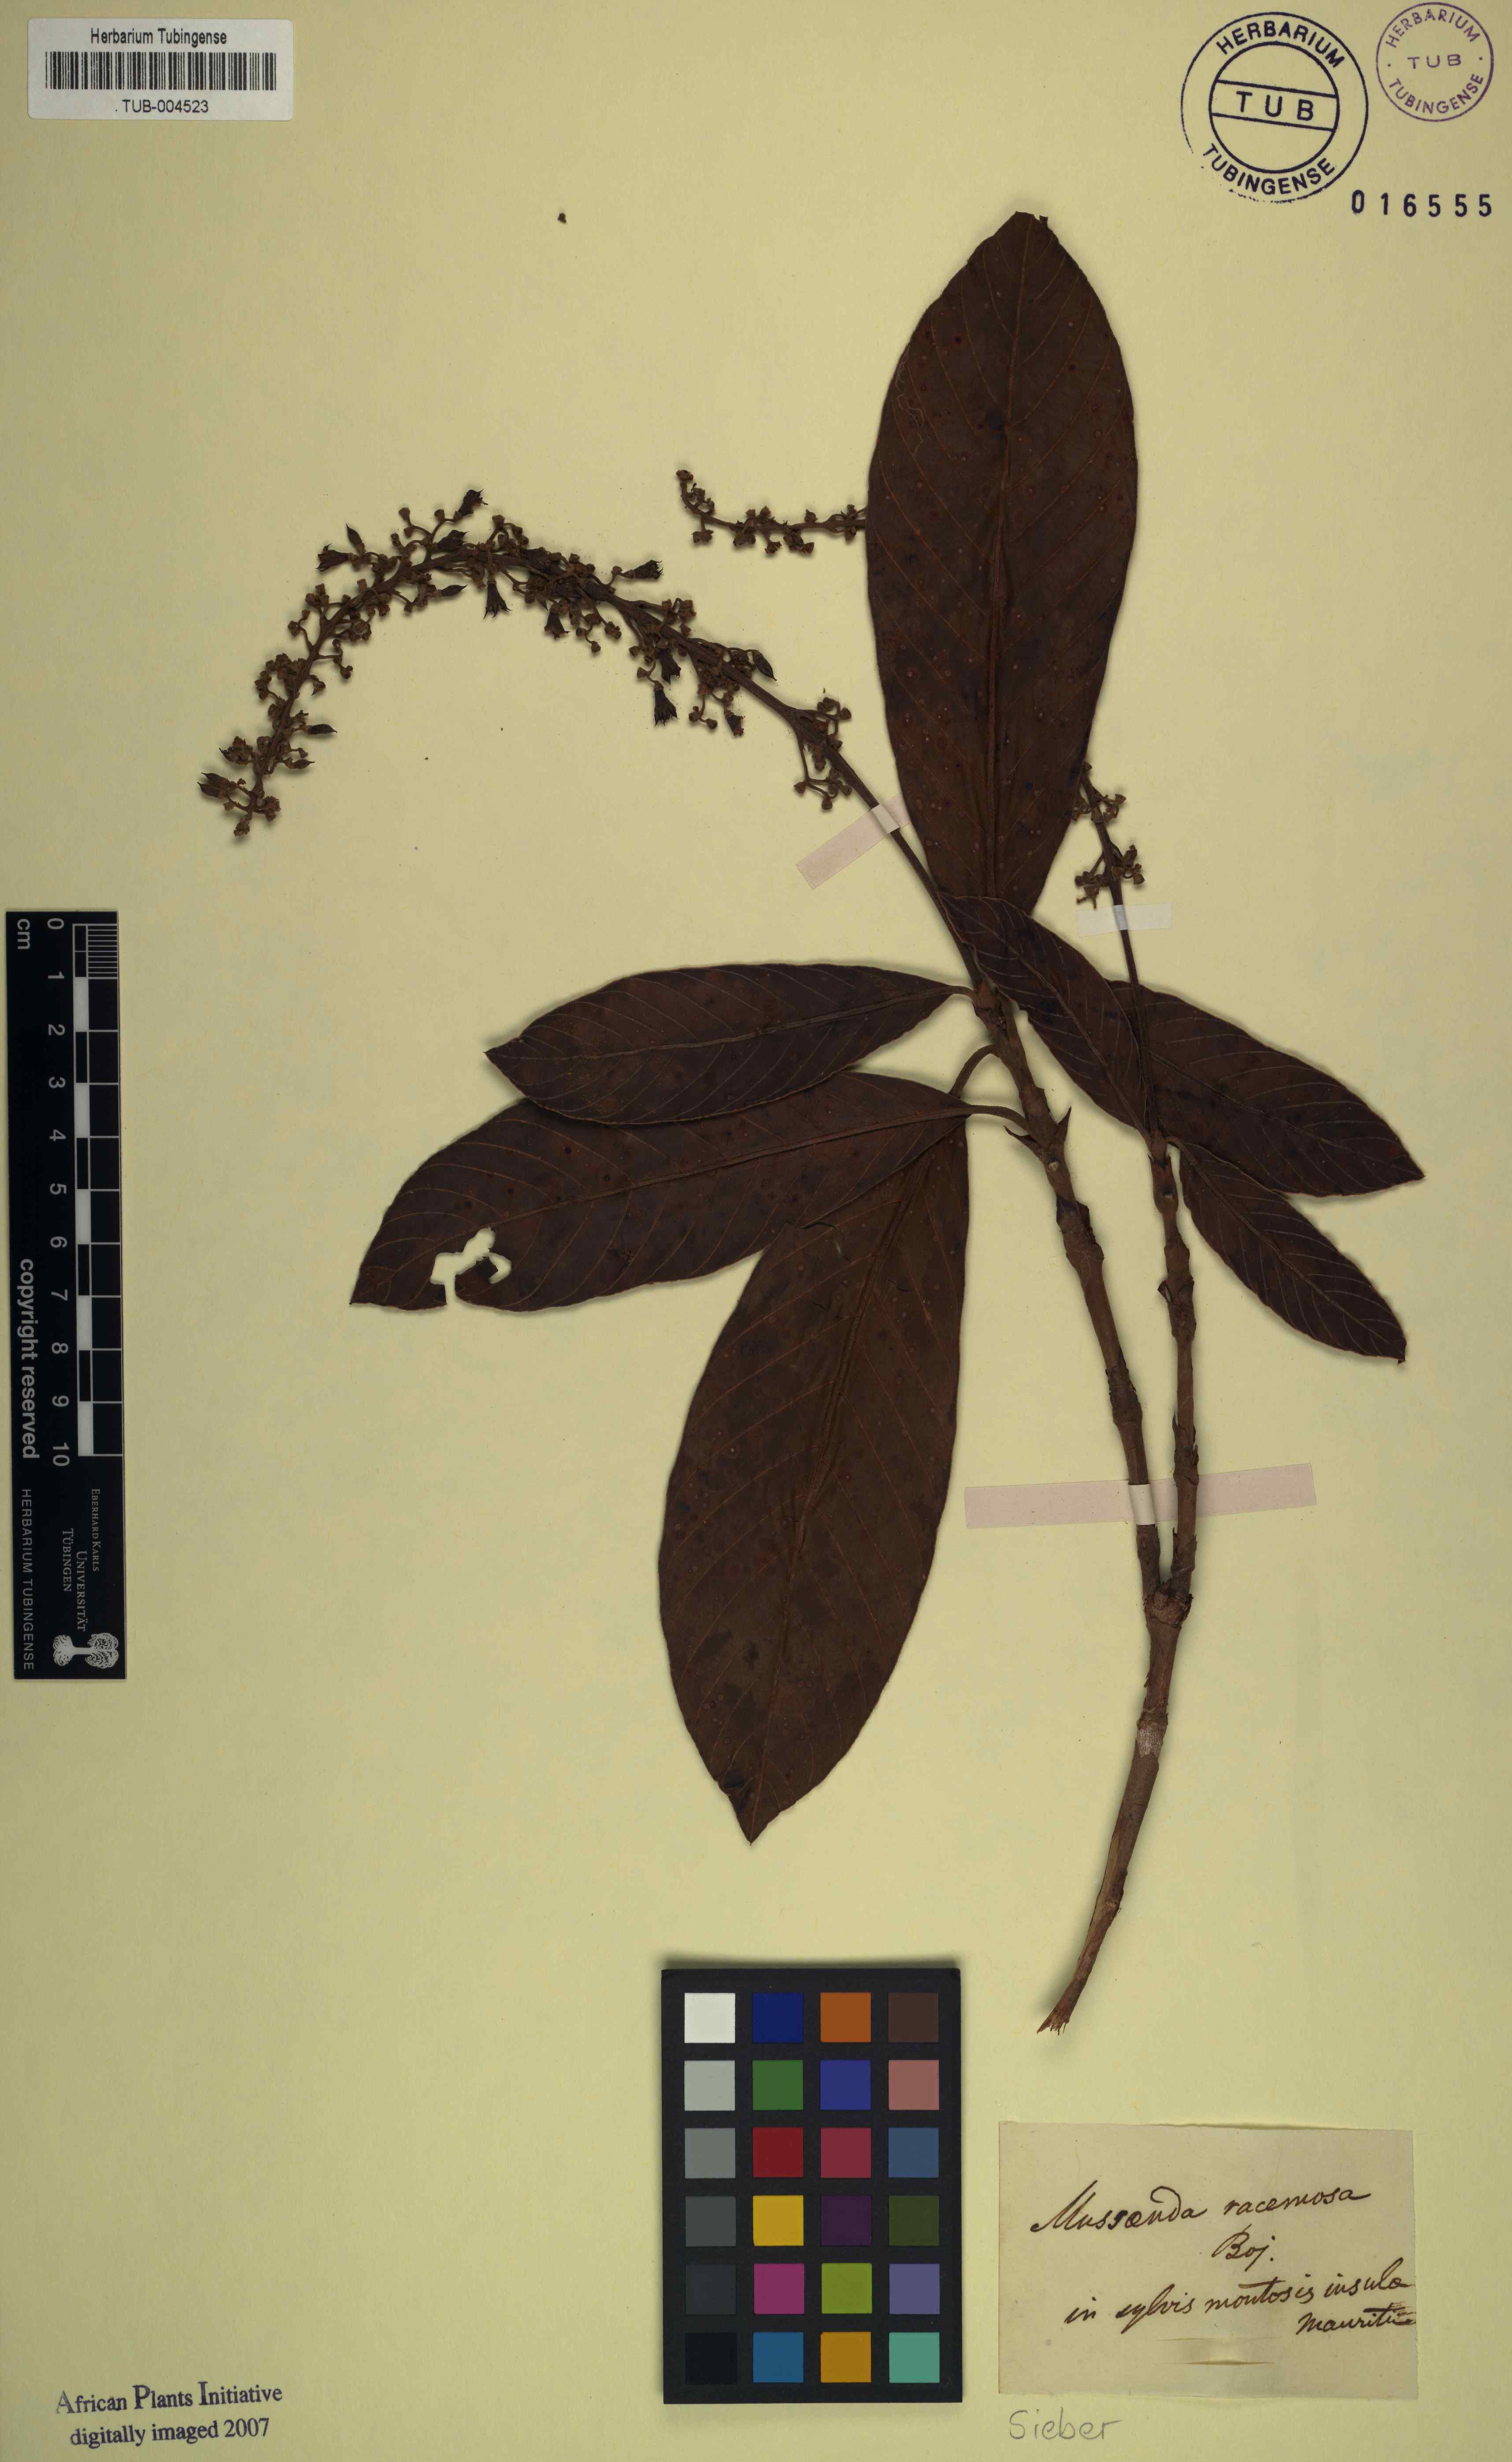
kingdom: Plantae
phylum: Tracheophyta
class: Magnoliopsida
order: Gentianales
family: Rubiaceae
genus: Bertiera
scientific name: Bertiera zaluzania
